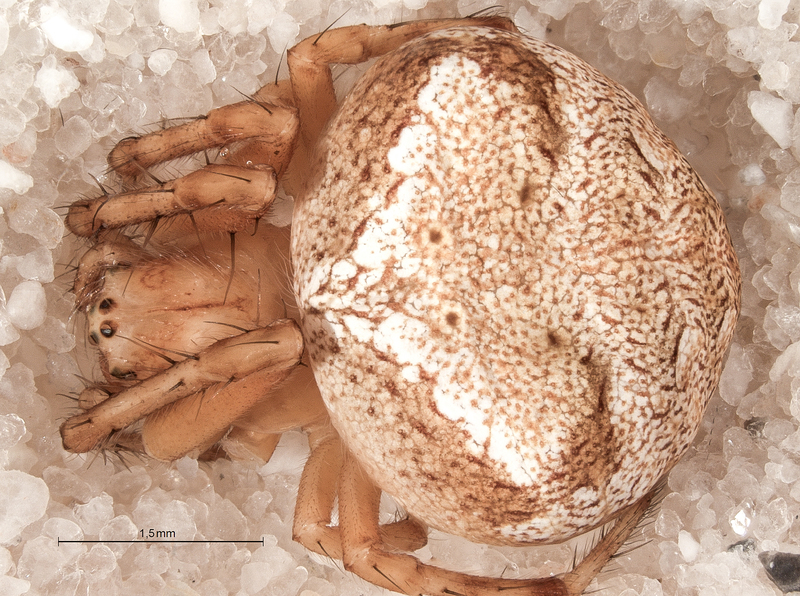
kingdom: Animalia
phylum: Arthropoda
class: Arachnida
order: Araneae
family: Araneidae
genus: Araneus
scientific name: Araneus triguttatus
